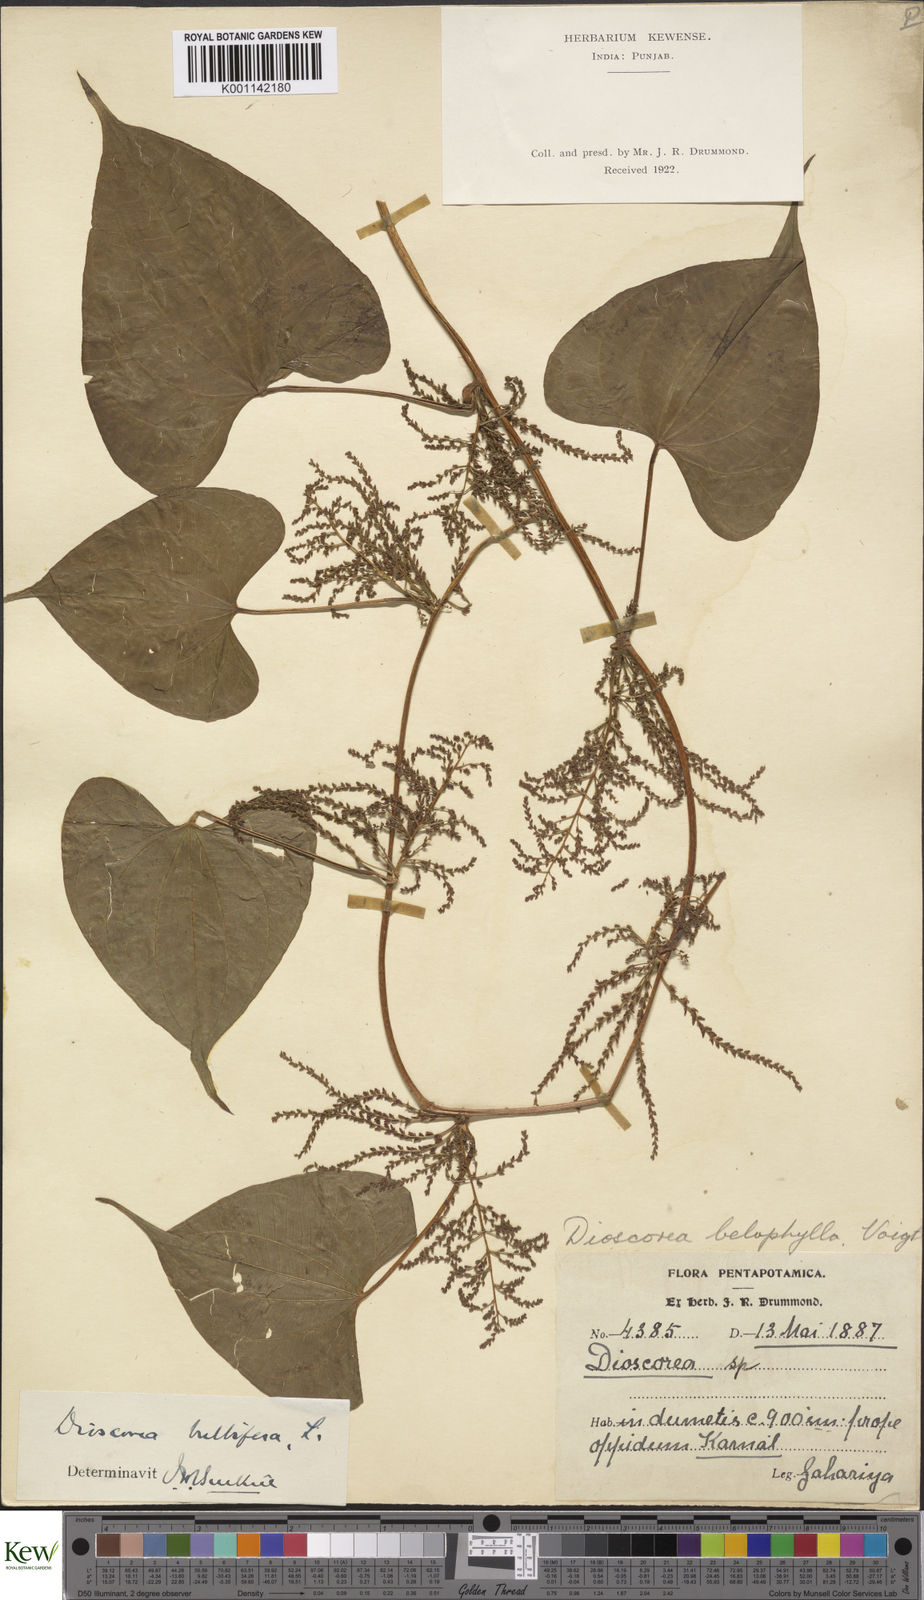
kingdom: Plantae
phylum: Tracheophyta
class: Liliopsida
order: Dioscoreales
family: Dioscoreaceae
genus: Dioscorea
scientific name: Dioscorea bulbifera
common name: Air yam
